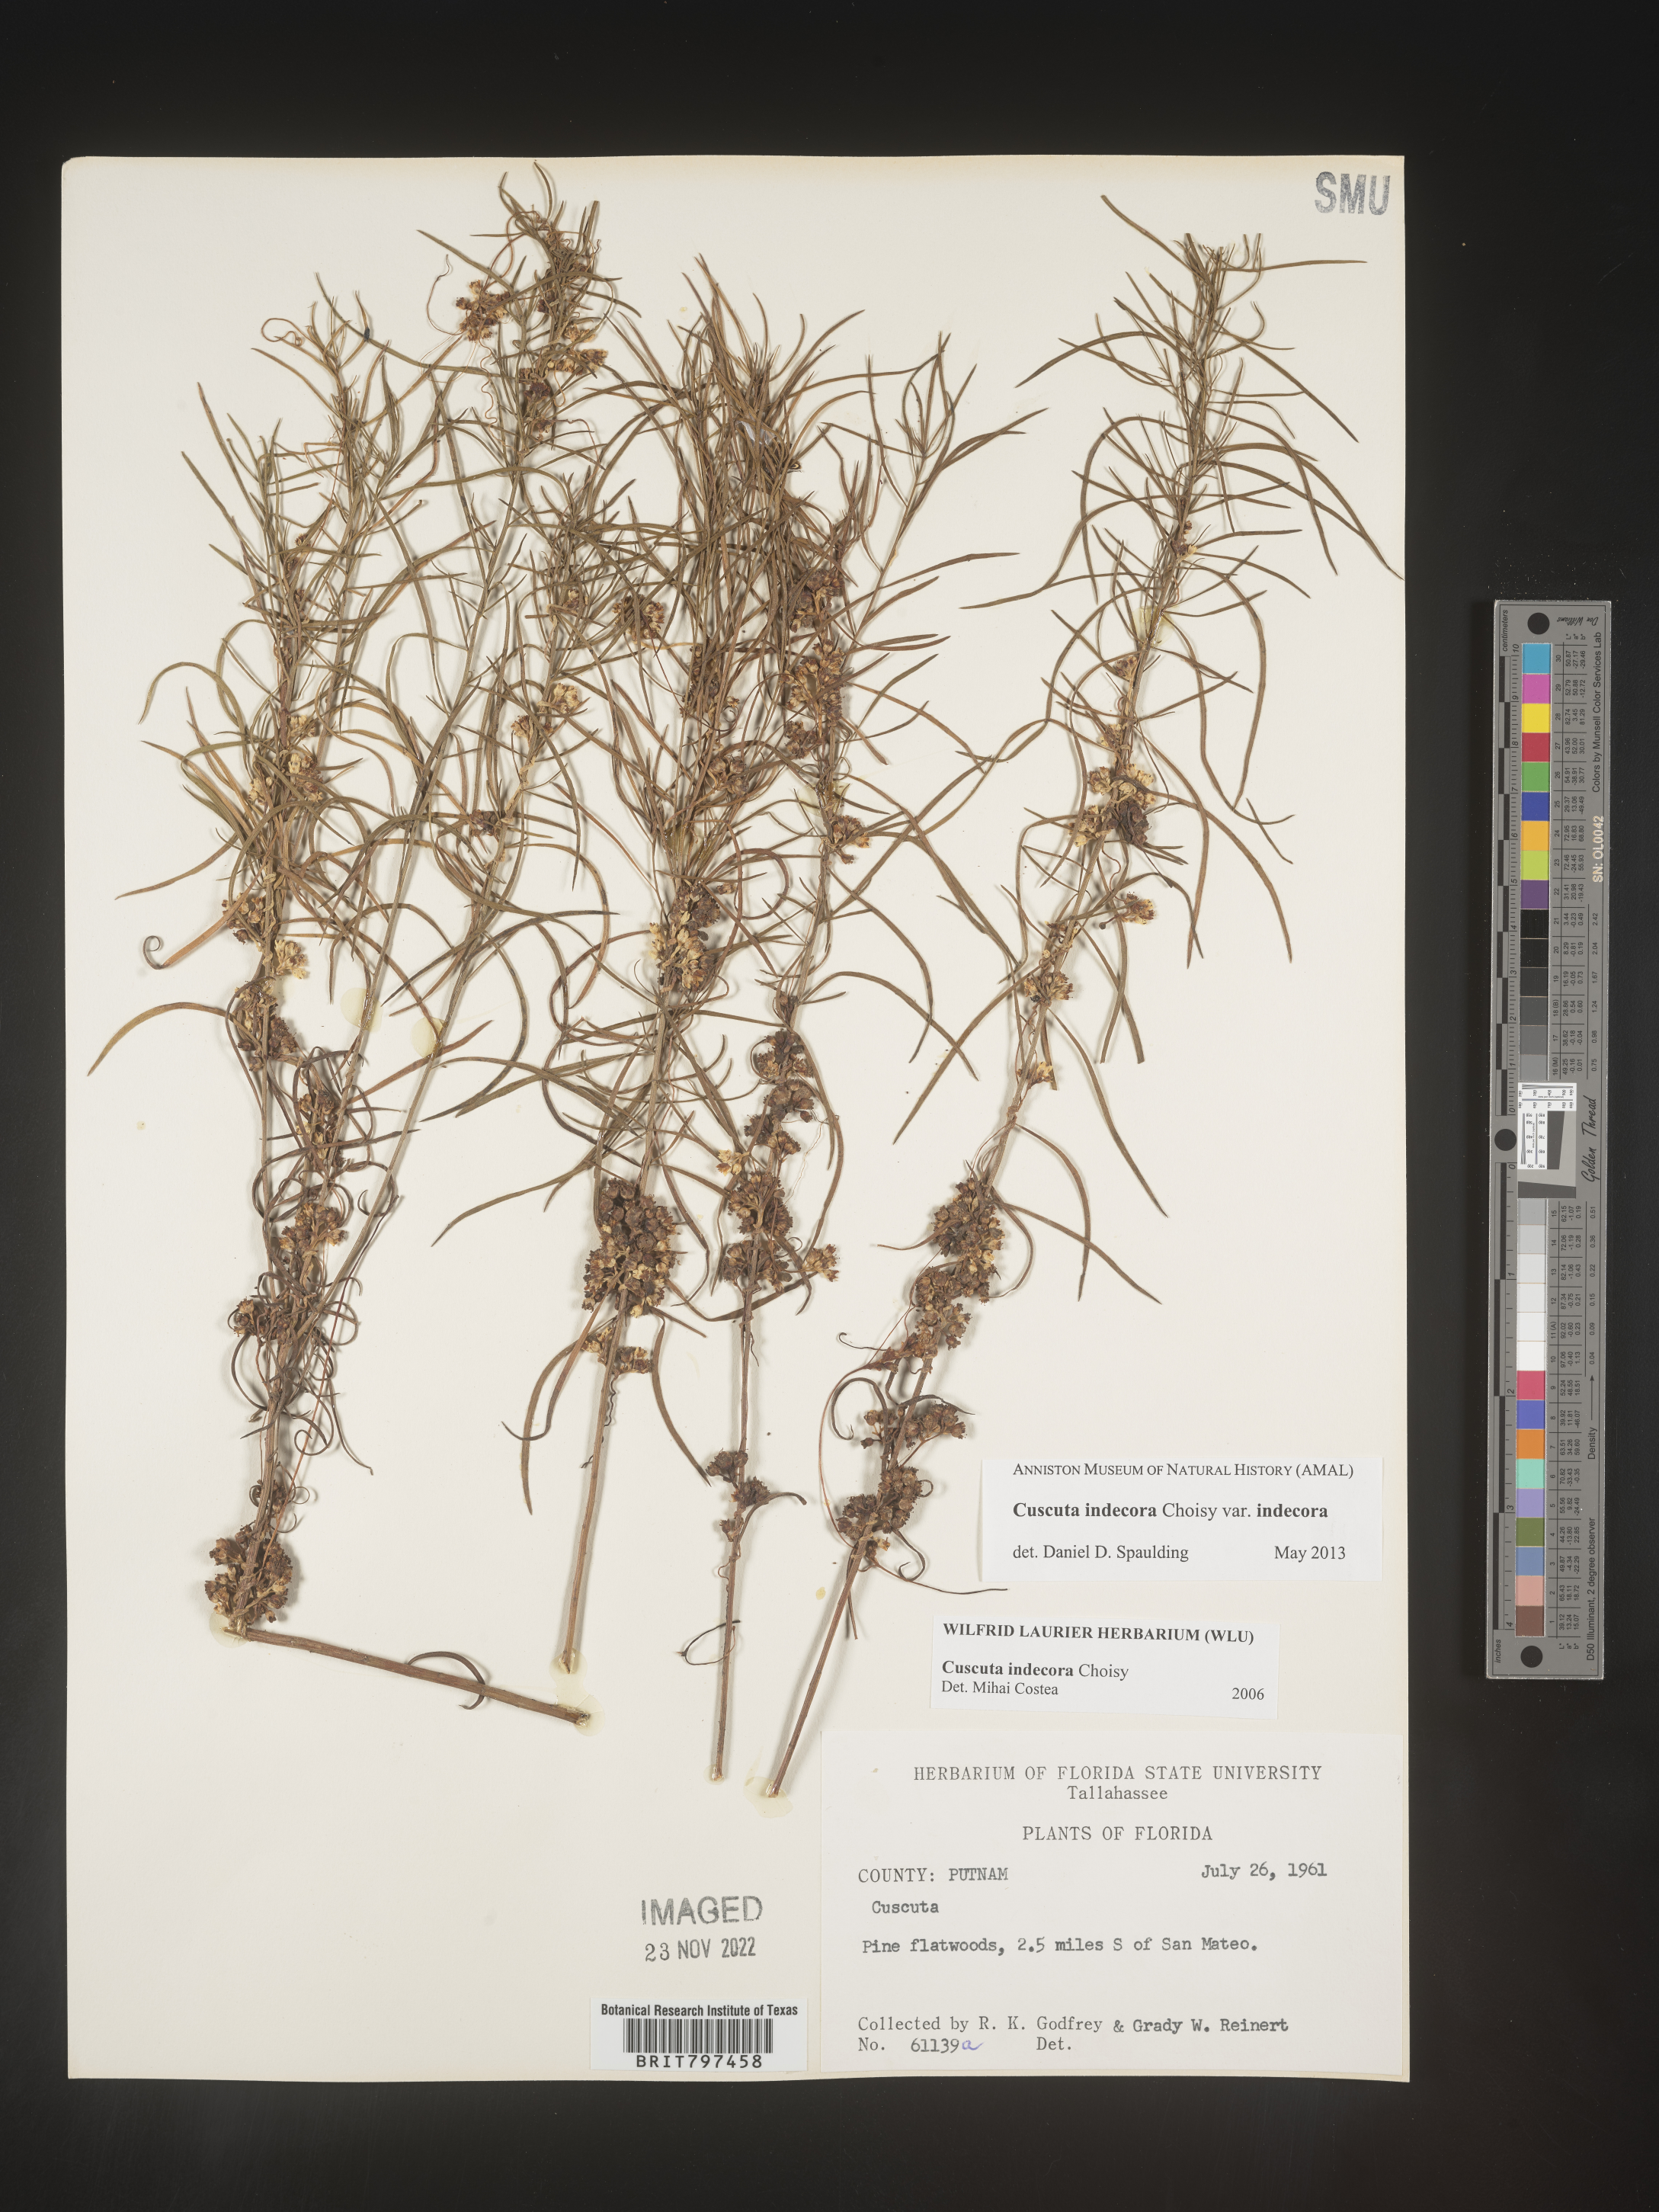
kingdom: Plantae
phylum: Tracheophyta
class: Magnoliopsida
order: Solanales
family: Convolvulaceae
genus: Cuscuta
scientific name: Cuscuta indecora
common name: Large-seed dodder
